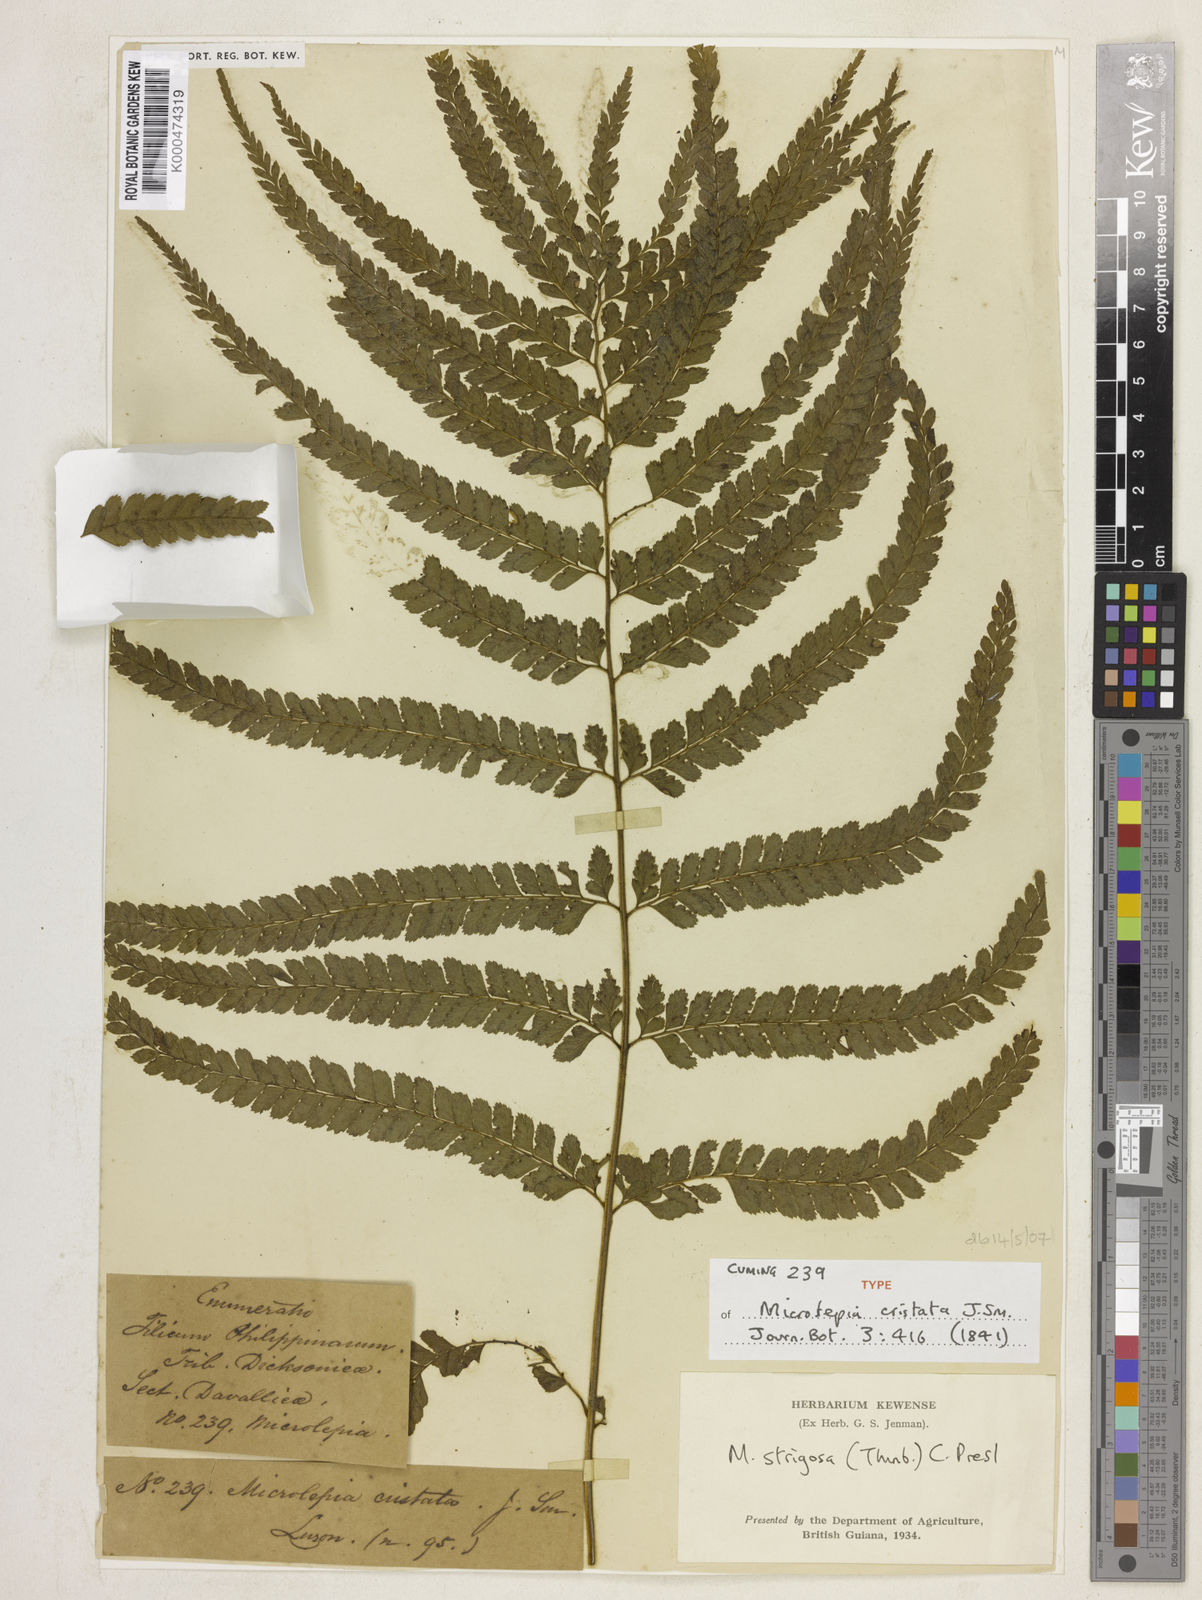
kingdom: Plantae
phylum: Tracheophyta
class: Polypodiopsida
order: Polypodiales
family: Dennstaedtiaceae
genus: Microlepia
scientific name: Microlepia strigosa
